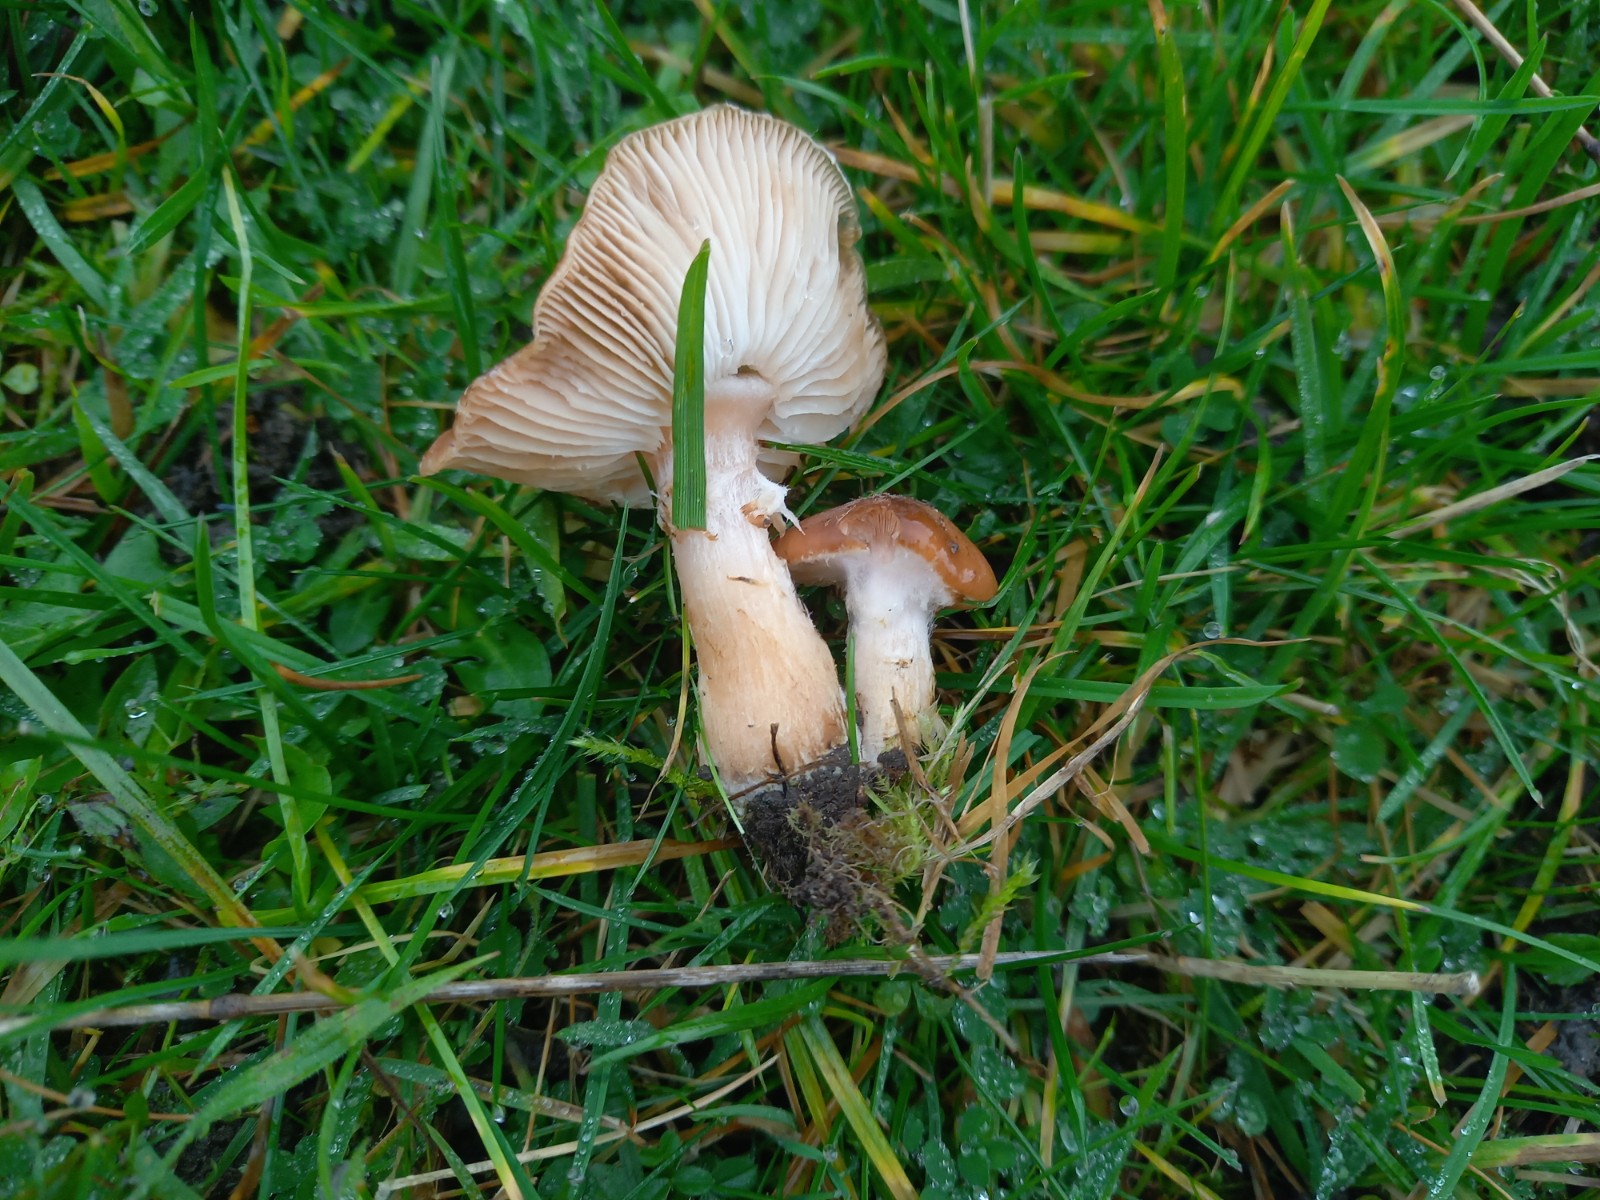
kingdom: Fungi
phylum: Basidiomycota
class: Agaricomycetes
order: Agaricales
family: Physalacriaceae
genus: Armillaria
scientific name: Armillaria lutea
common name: køllestokket honningsvamp
